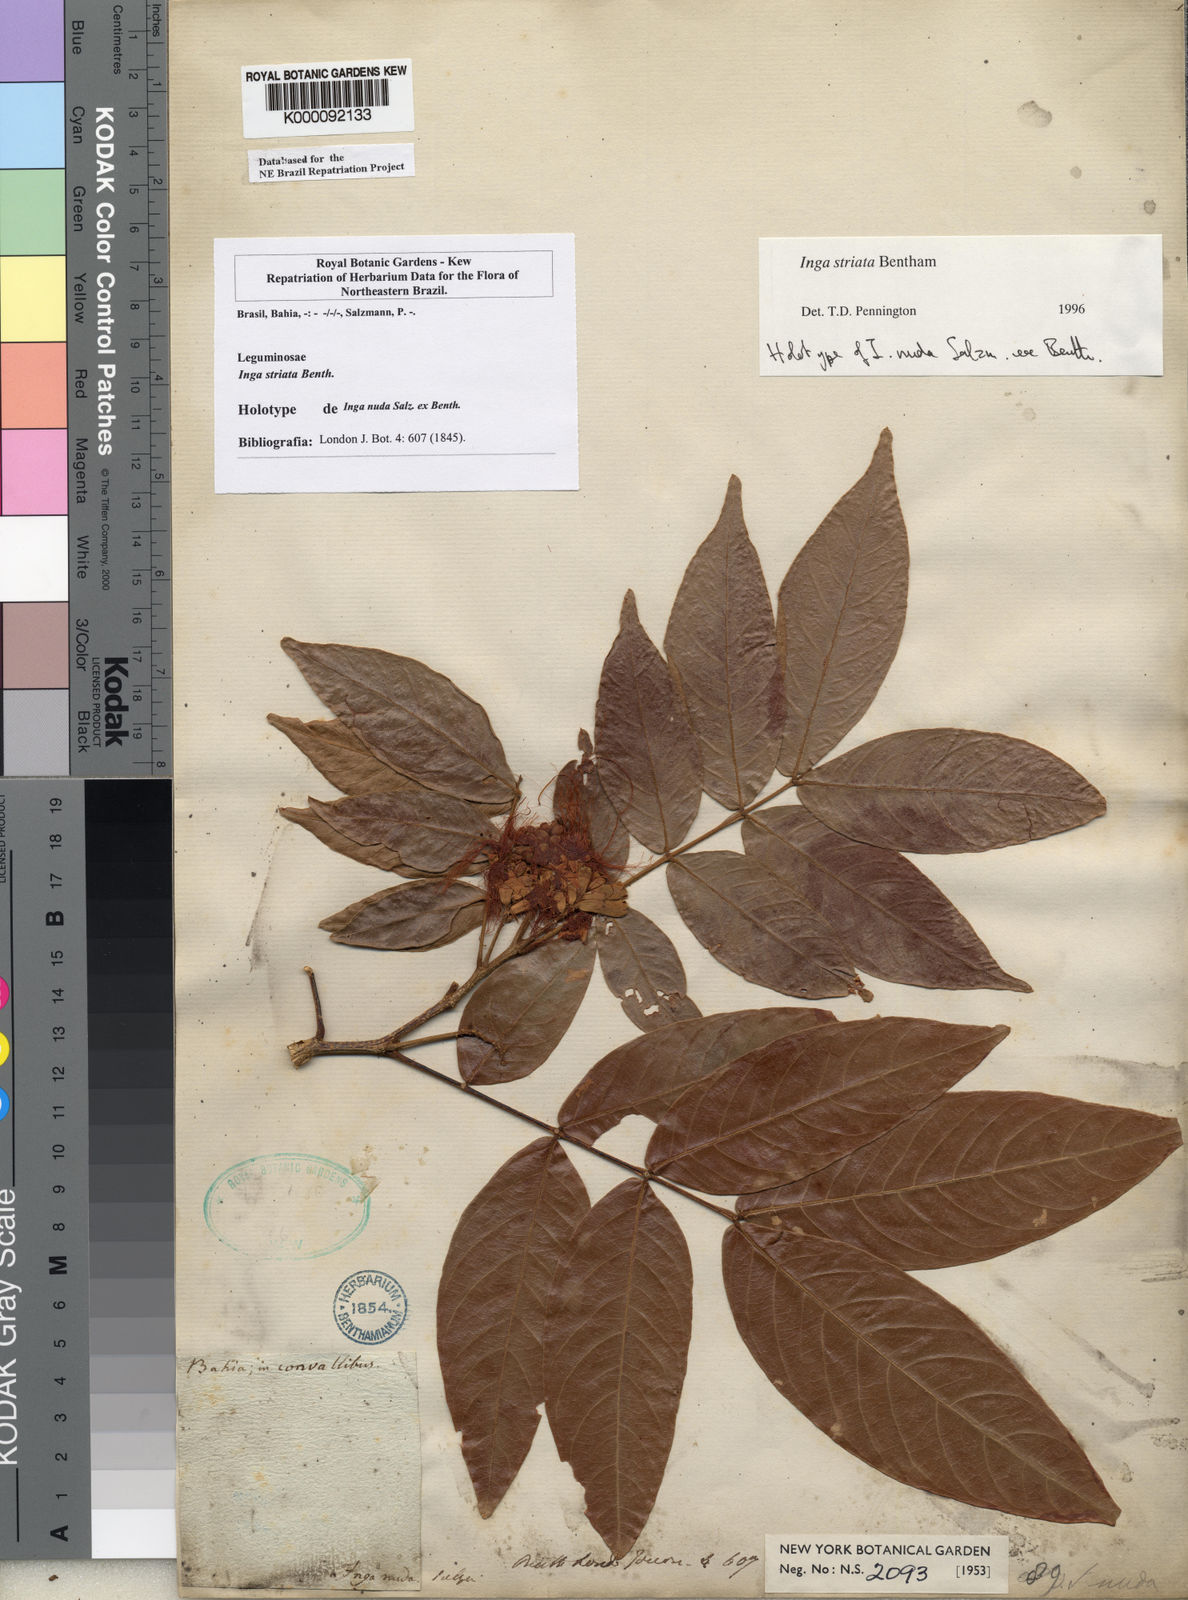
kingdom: Plantae
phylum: Tracheophyta
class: Magnoliopsida
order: Fabales
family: Fabaceae
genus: Inga
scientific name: Inga striata
